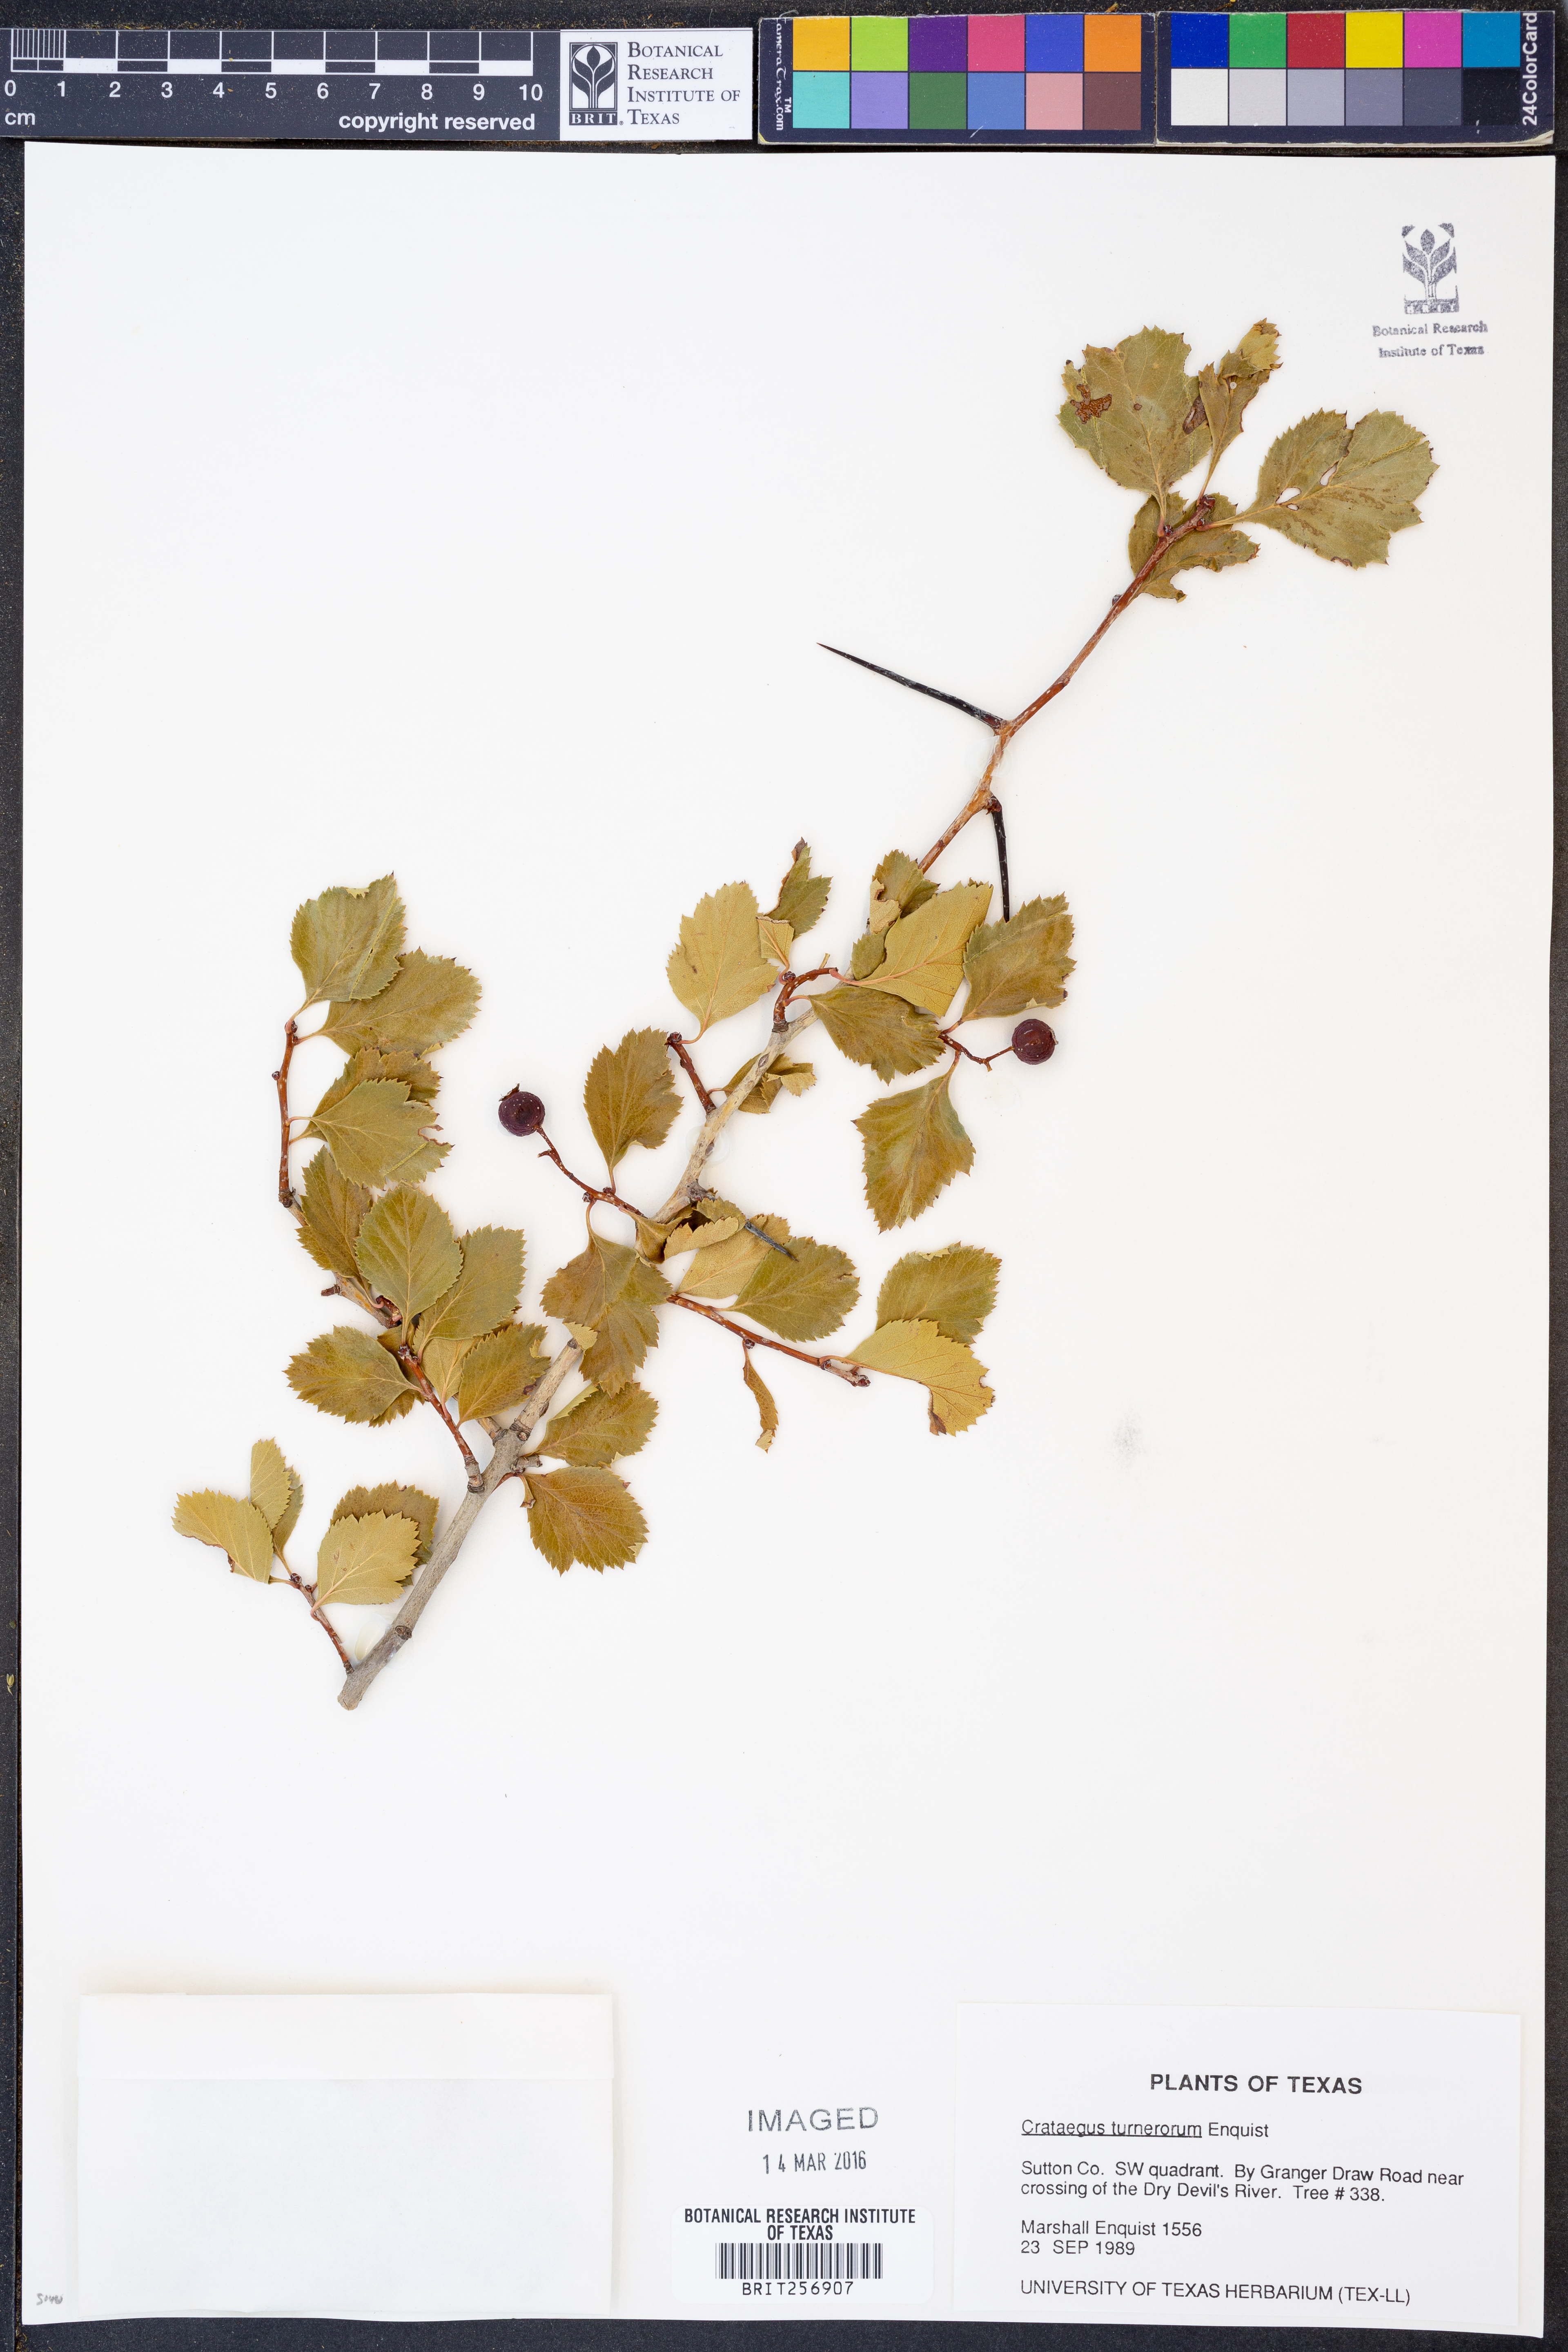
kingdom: Plantae
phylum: Tracheophyta
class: Magnoliopsida
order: Rosales
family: Rosaceae
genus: Crataegus
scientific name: Crataegus turnerorum
